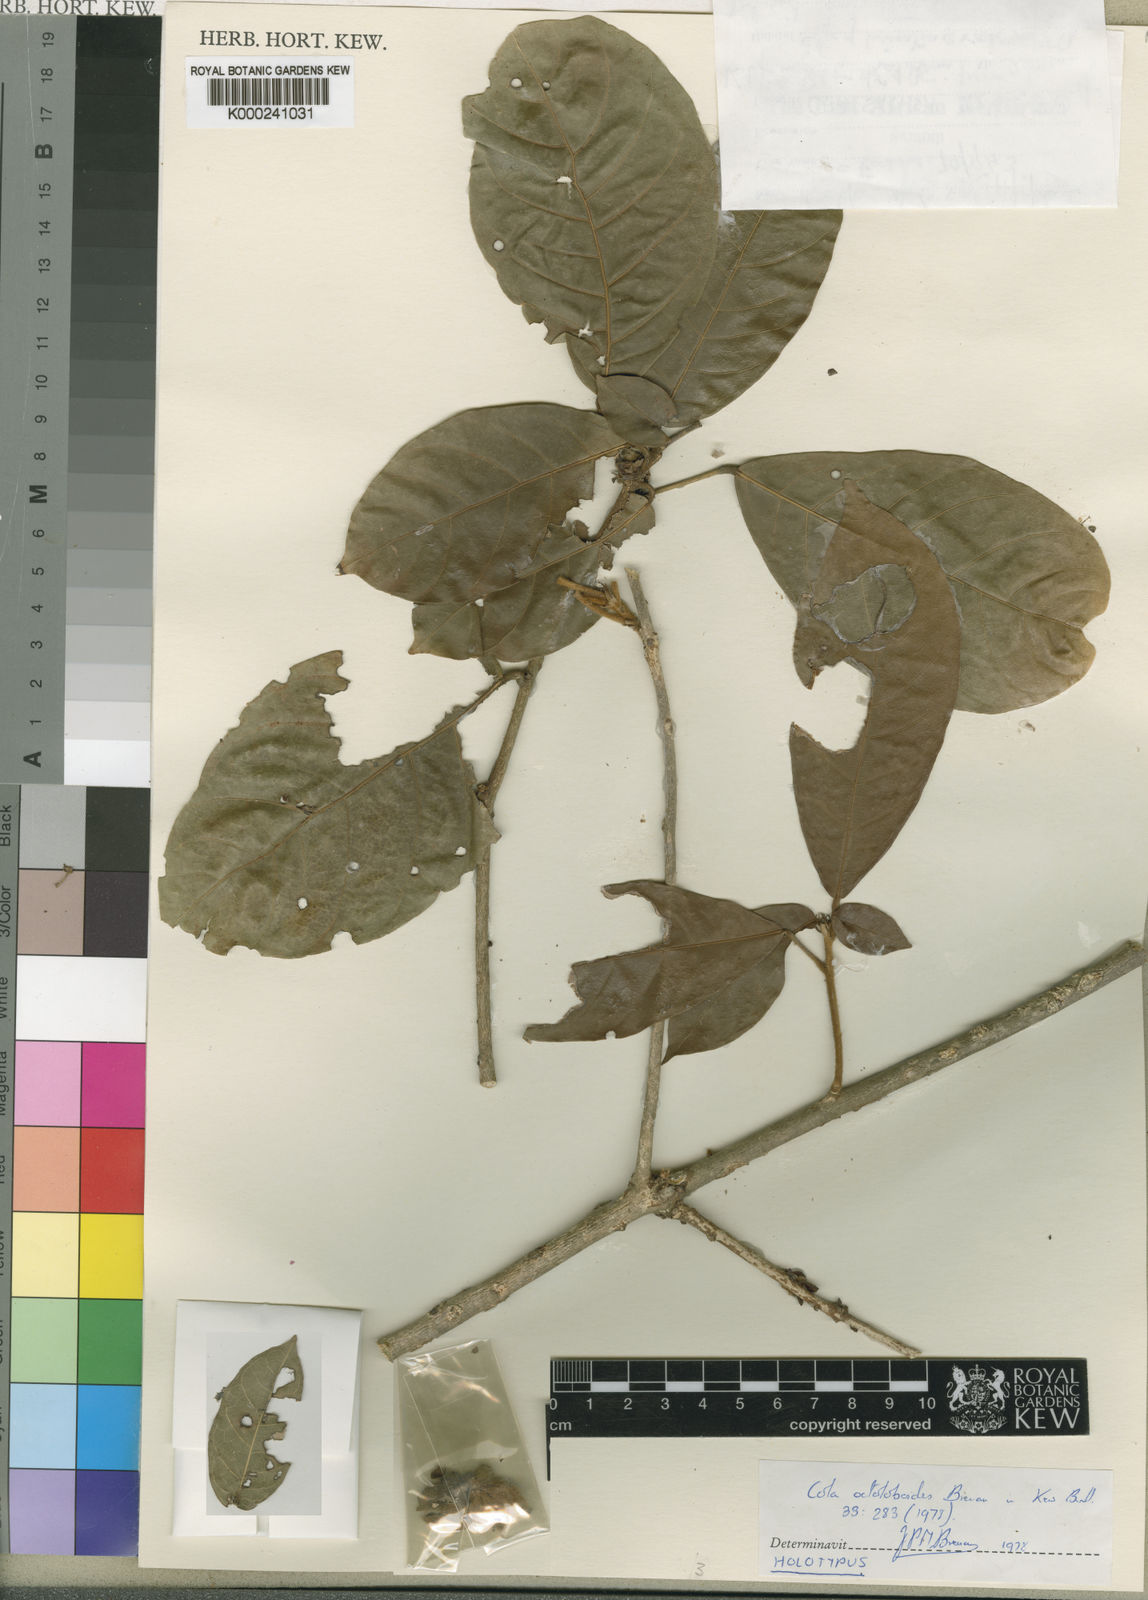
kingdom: Plantae
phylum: Tracheophyta
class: Magnoliopsida
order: Malvales
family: Malvaceae
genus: Cola
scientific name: Cola octoloboides
